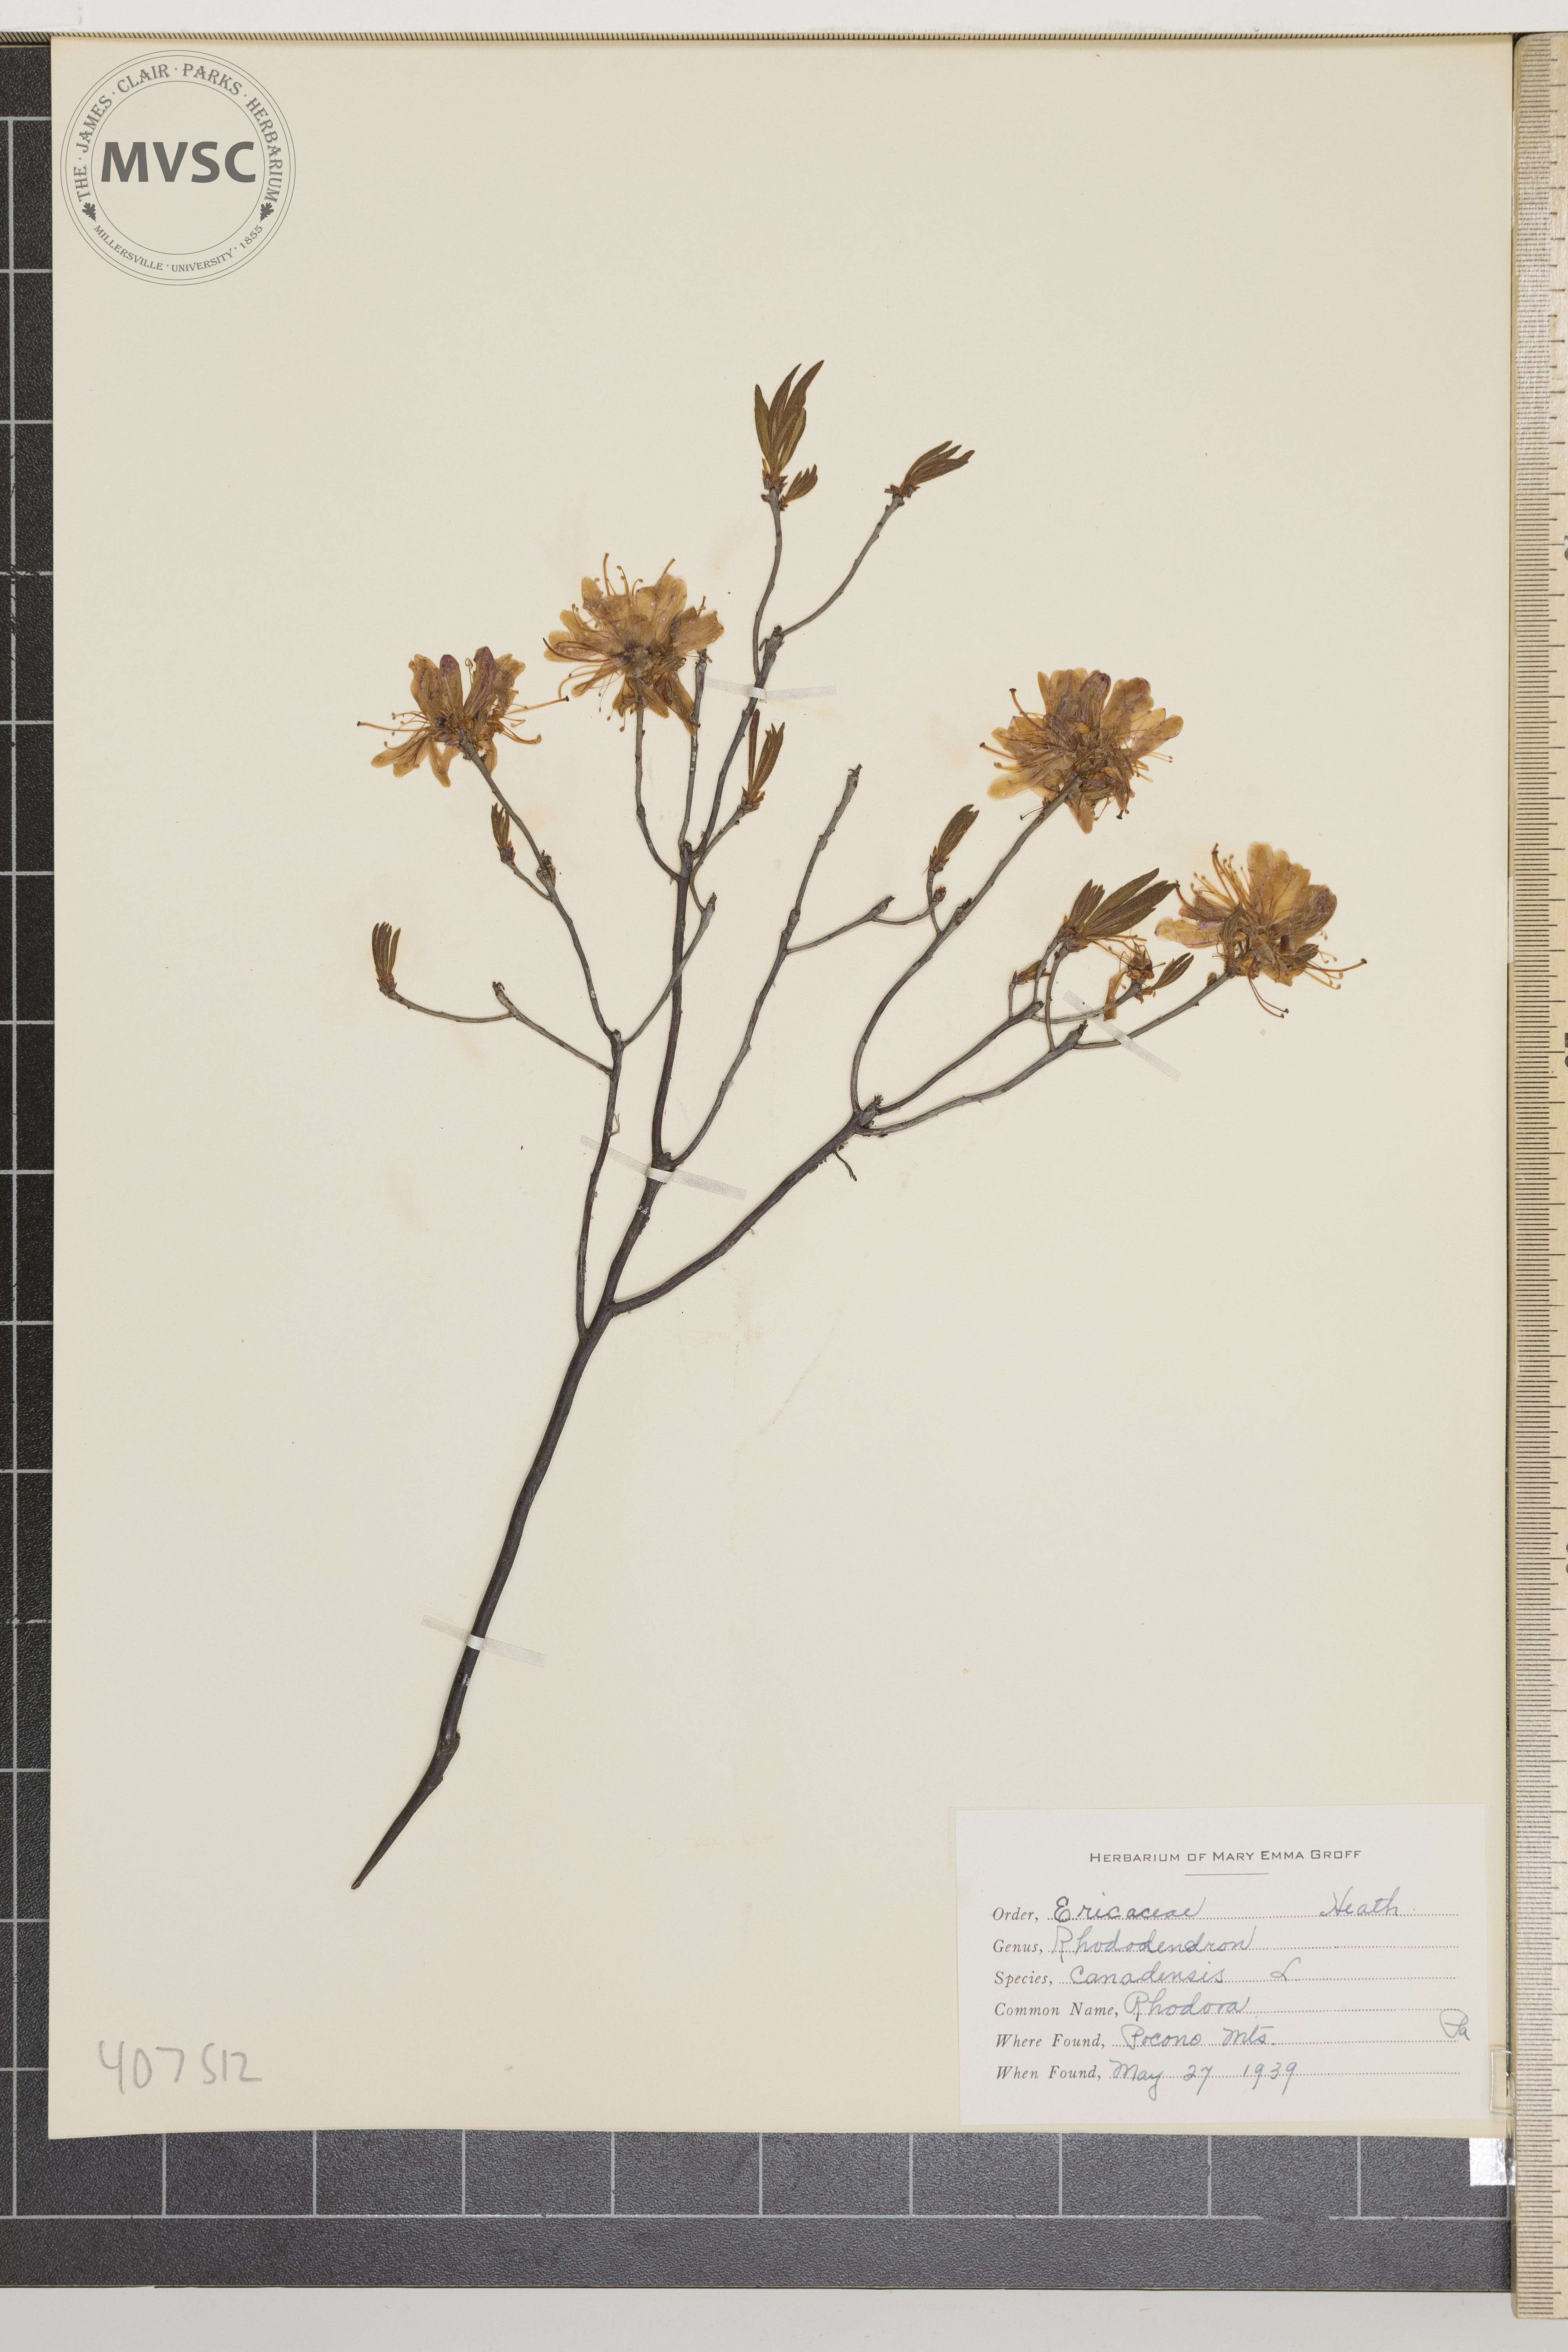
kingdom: Plantae
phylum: Tracheophyta
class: Magnoliopsida
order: Ericales
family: Ericaceae
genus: Rhododendron
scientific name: Rhododendron canadense
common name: Rhodora
